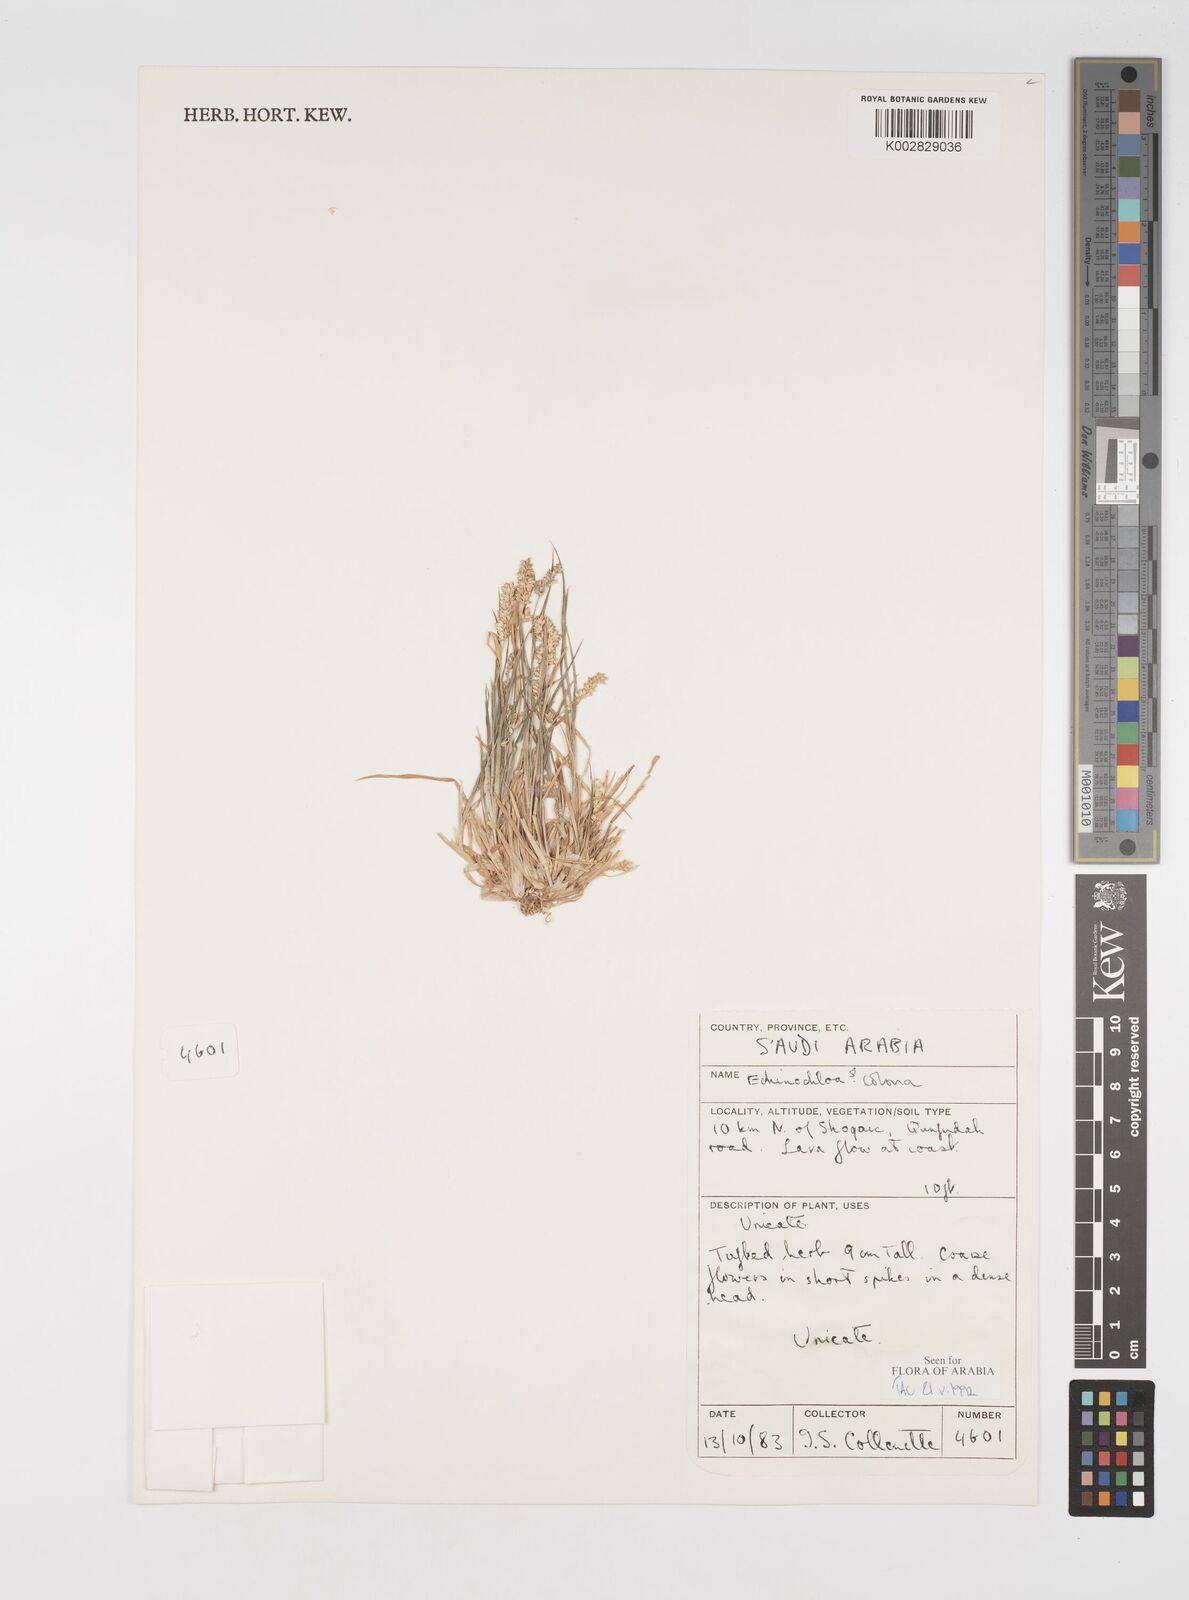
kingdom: Plantae
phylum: Tracheophyta
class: Liliopsida
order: Poales
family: Poaceae
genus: Echinochloa
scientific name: Echinochloa colonum
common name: Jungle rice
